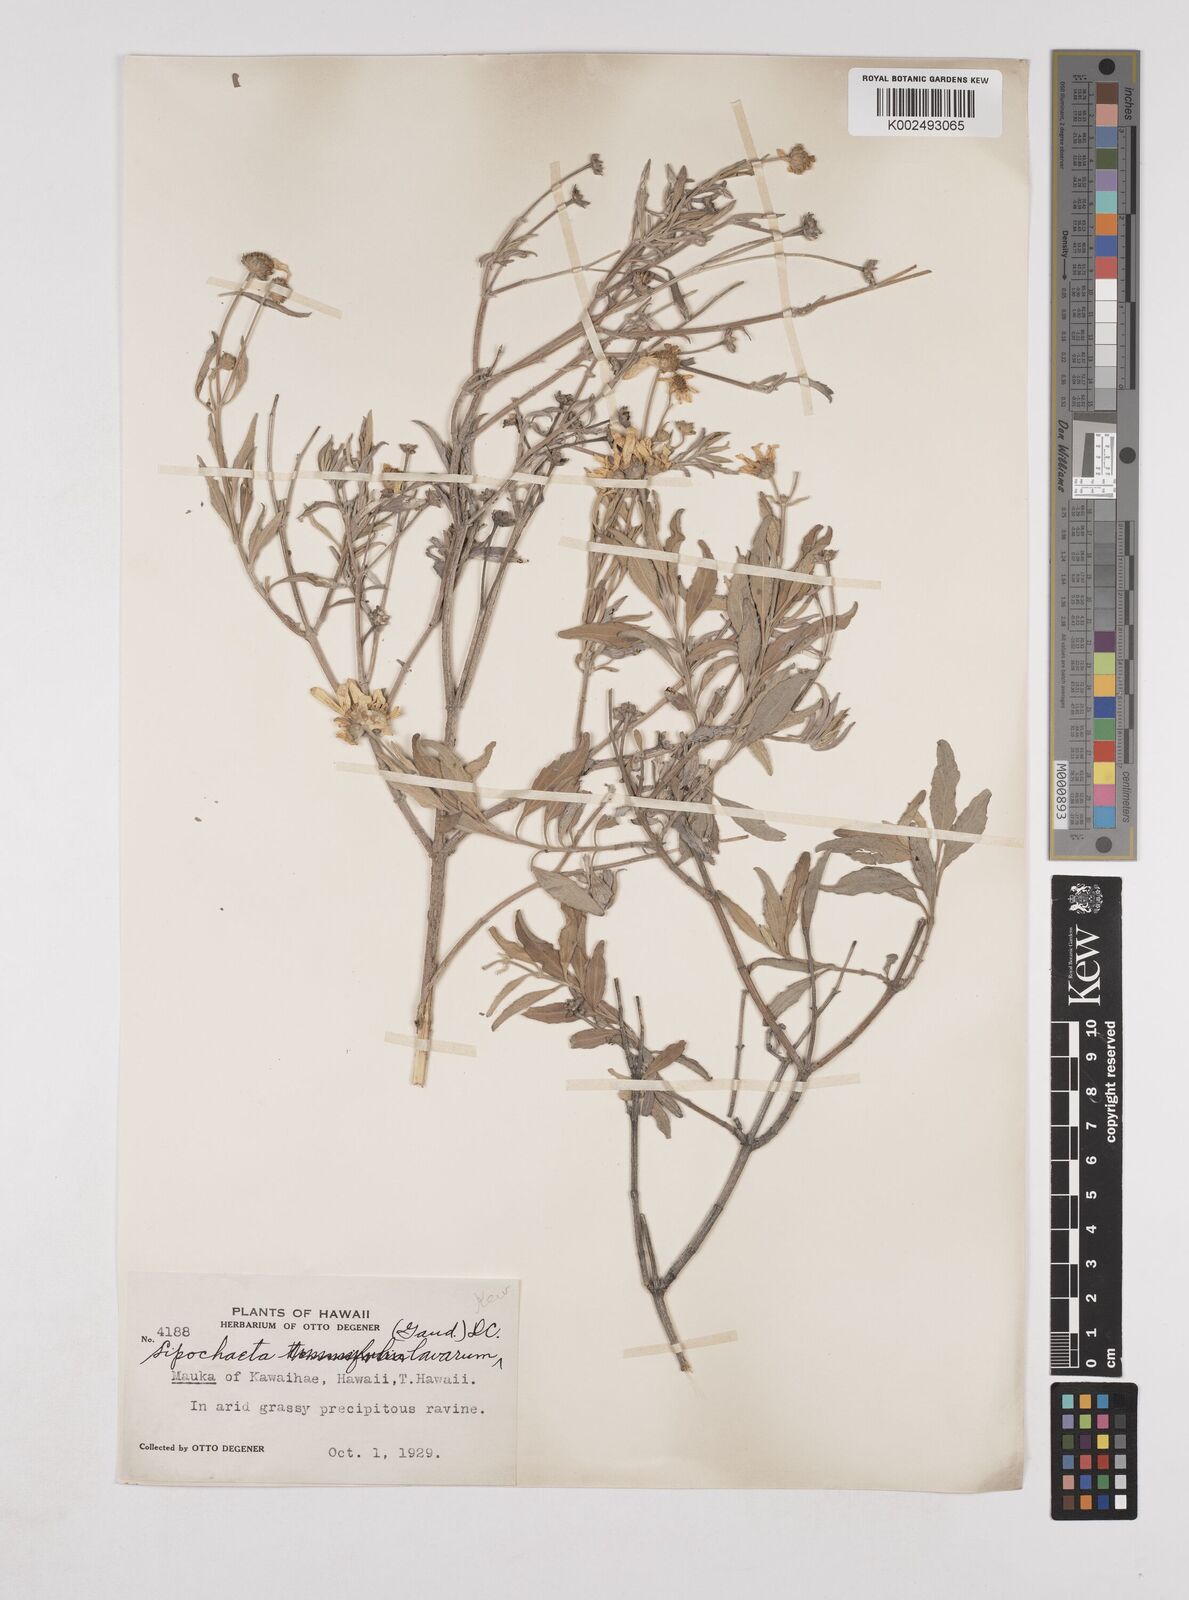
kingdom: Plantae
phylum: Tracheophyta
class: Magnoliopsida
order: Asterales
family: Asteraceae
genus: Lipochaeta
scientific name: Lipochaeta lavarum
